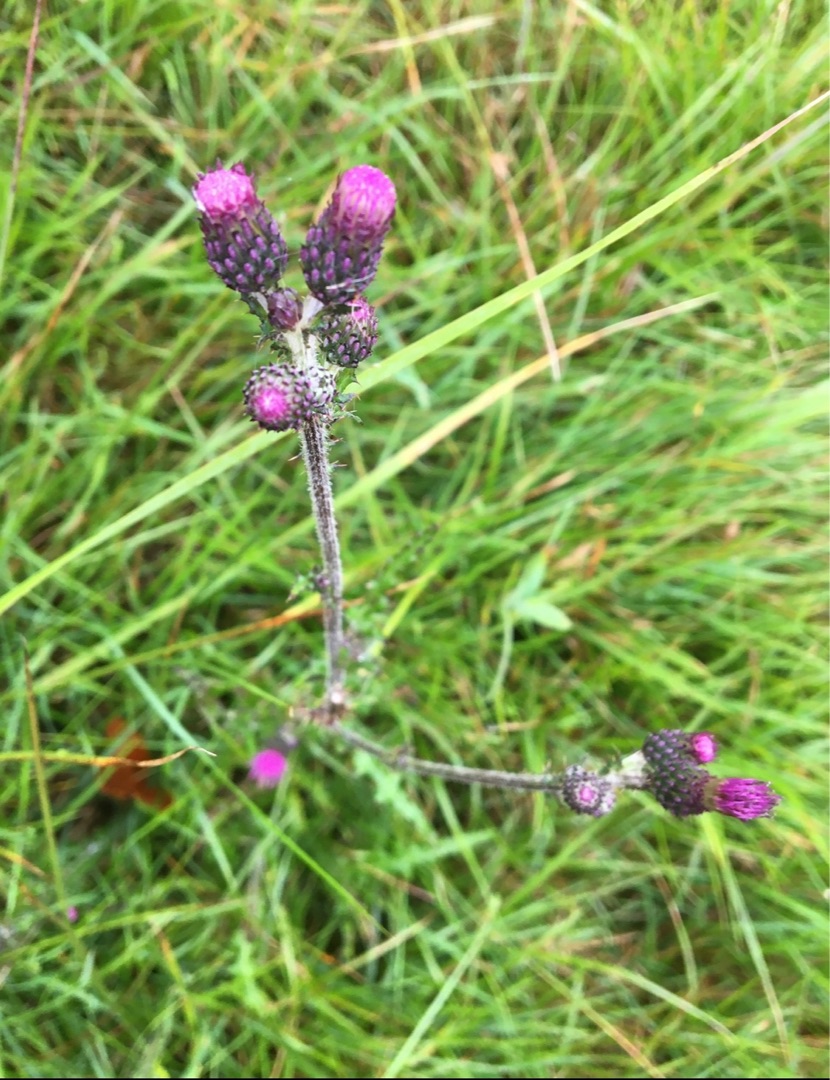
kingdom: Plantae
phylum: Tracheophyta
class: Magnoliopsida
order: Asterales
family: Asteraceae
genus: Cirsium
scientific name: Cirsium palustre
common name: Kær-tidsel
